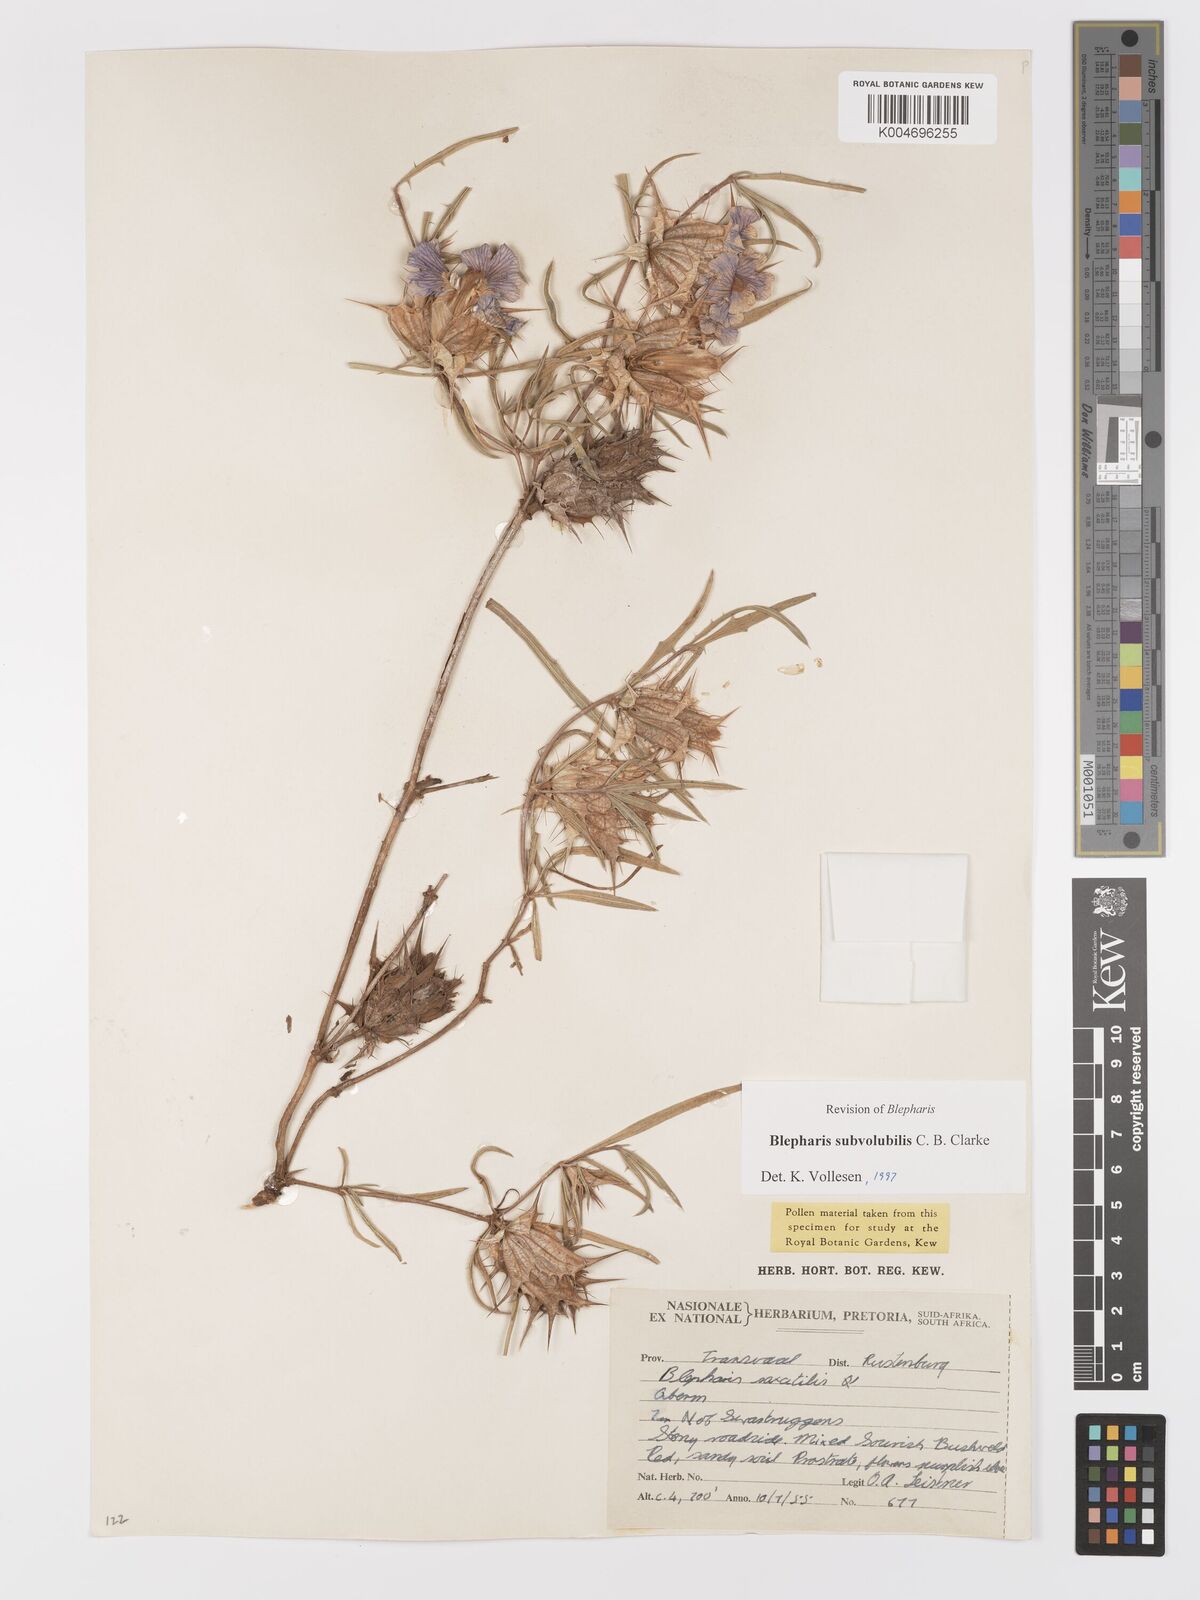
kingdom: Plantae
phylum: Tracheophyta
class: Magnoliopsida
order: Lamiales
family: Acanthaceae
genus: Blepharis
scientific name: Blepharis subvolubilis
